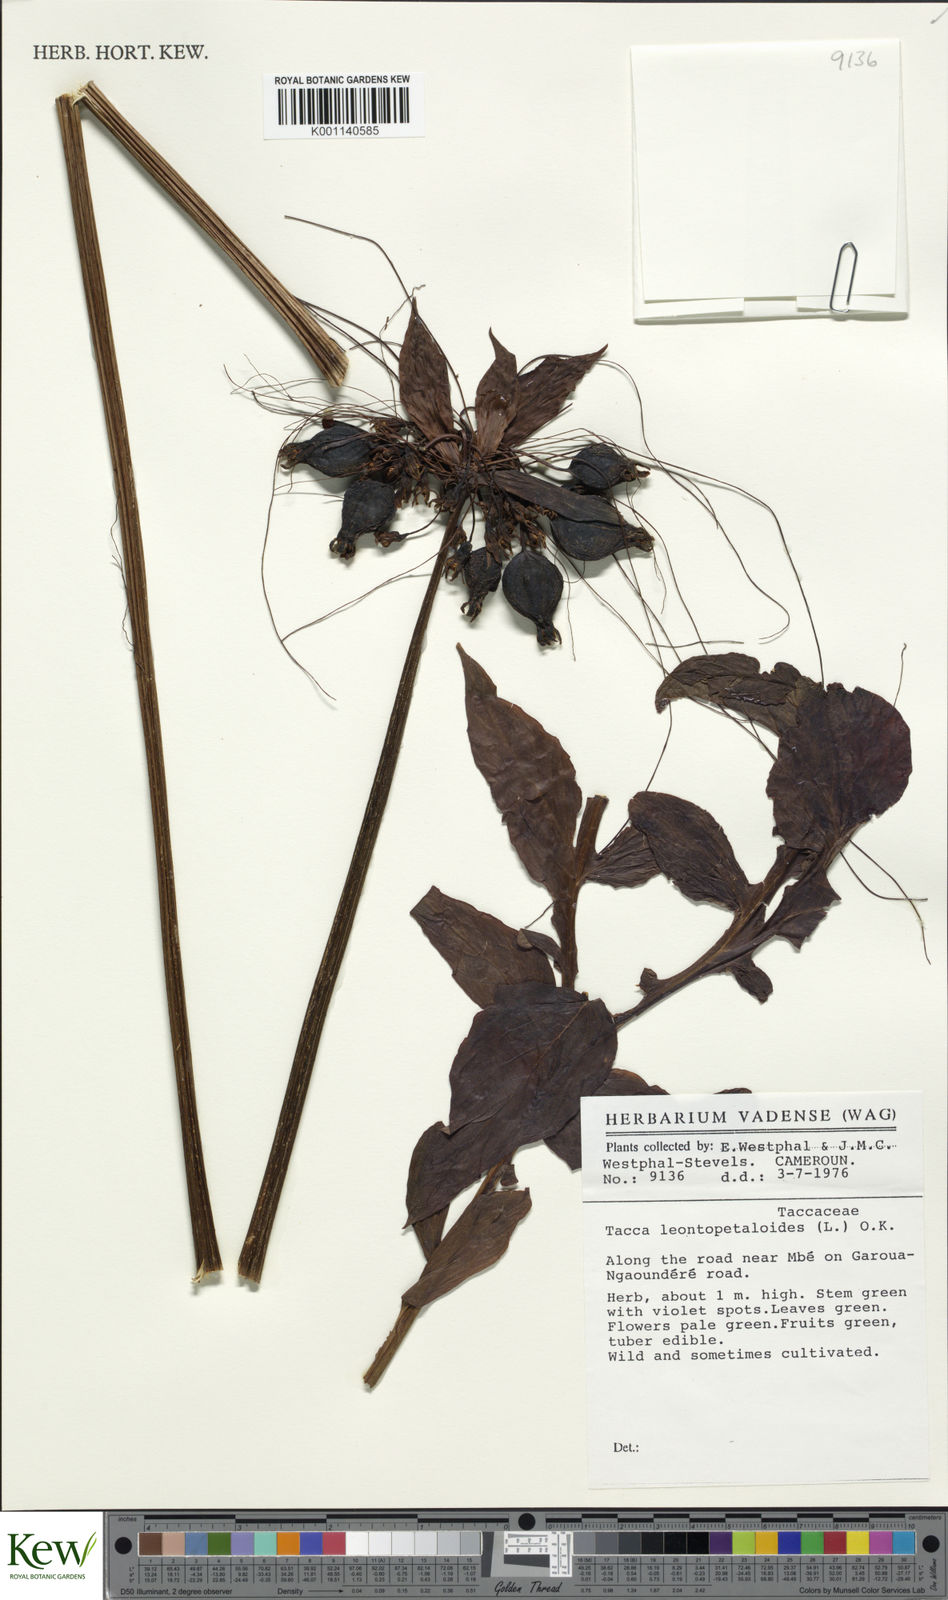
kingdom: Plantae
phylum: Tracheophyta
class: Liliopsida
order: Dioscoreales
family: Dioscoreaceae
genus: Tacca
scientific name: Tacca leontopetaloides
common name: Arrowroot
